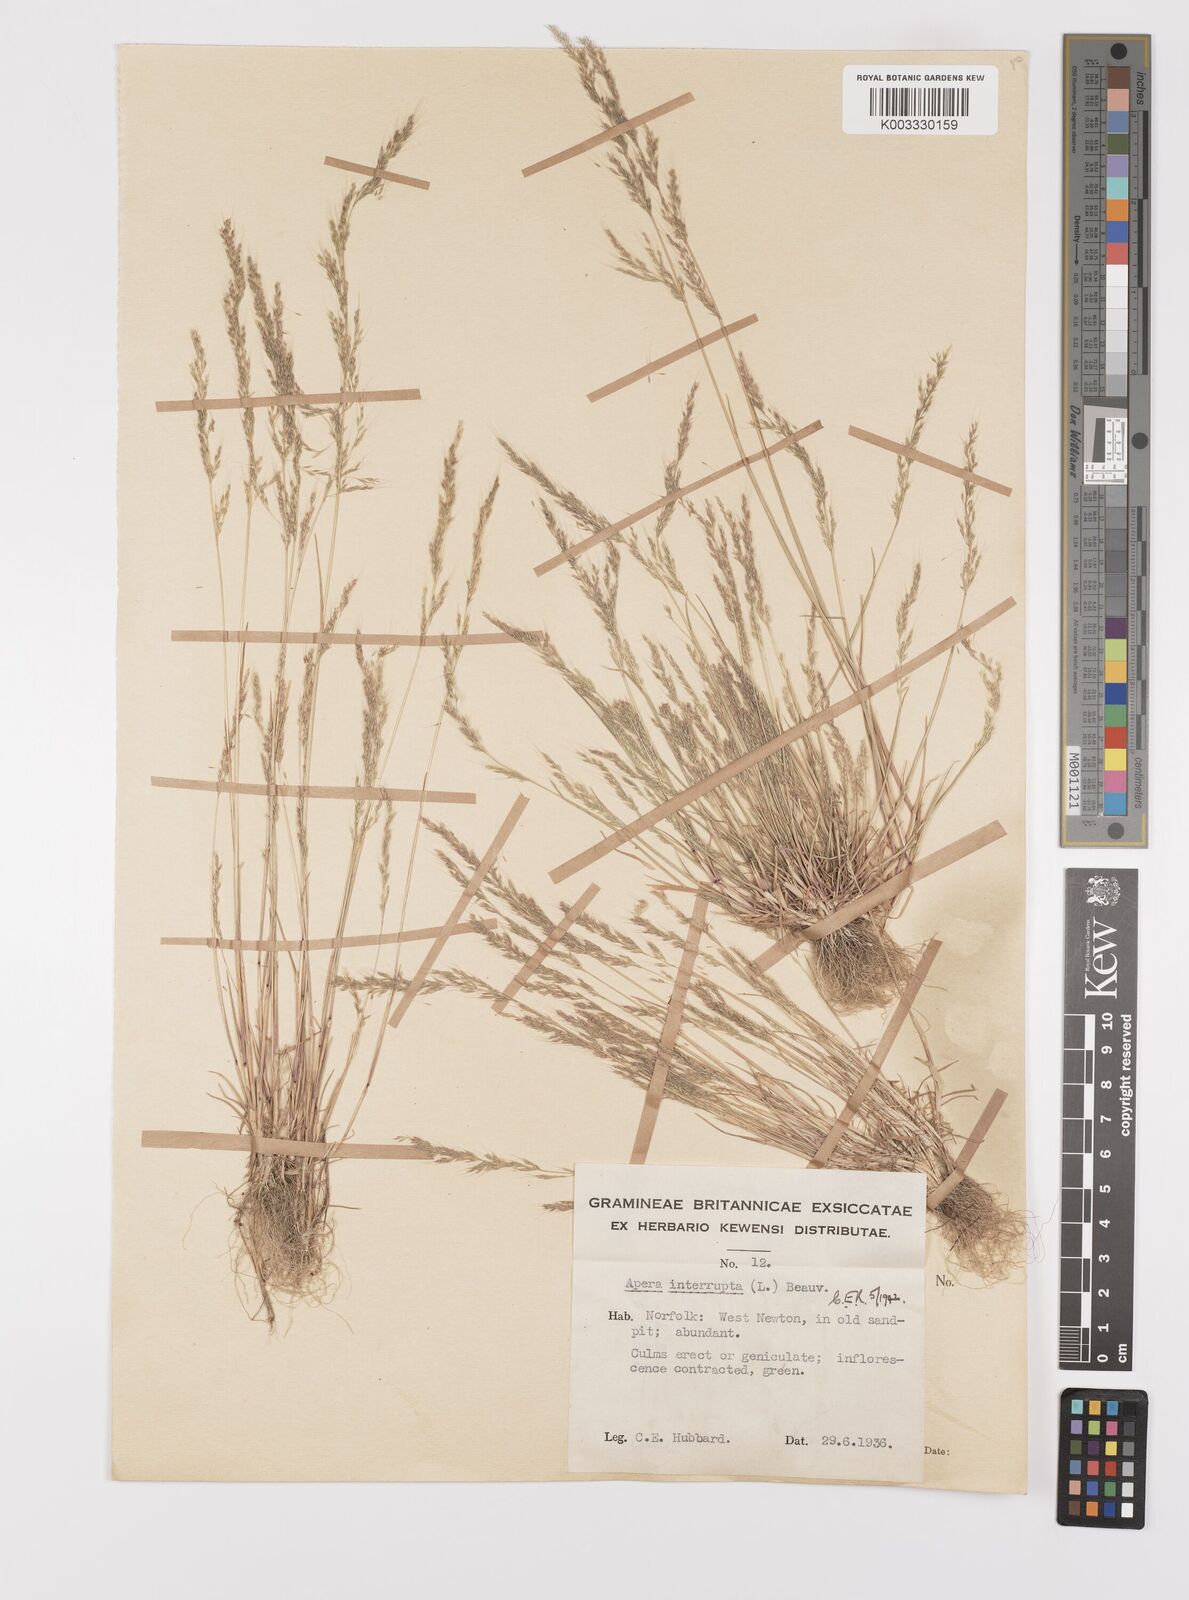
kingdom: Plantae
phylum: Tracheophyta
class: Liliopsida
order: Poales
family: Poaceae
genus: Apera
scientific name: Apera interrupta
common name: Dense silky-bent
